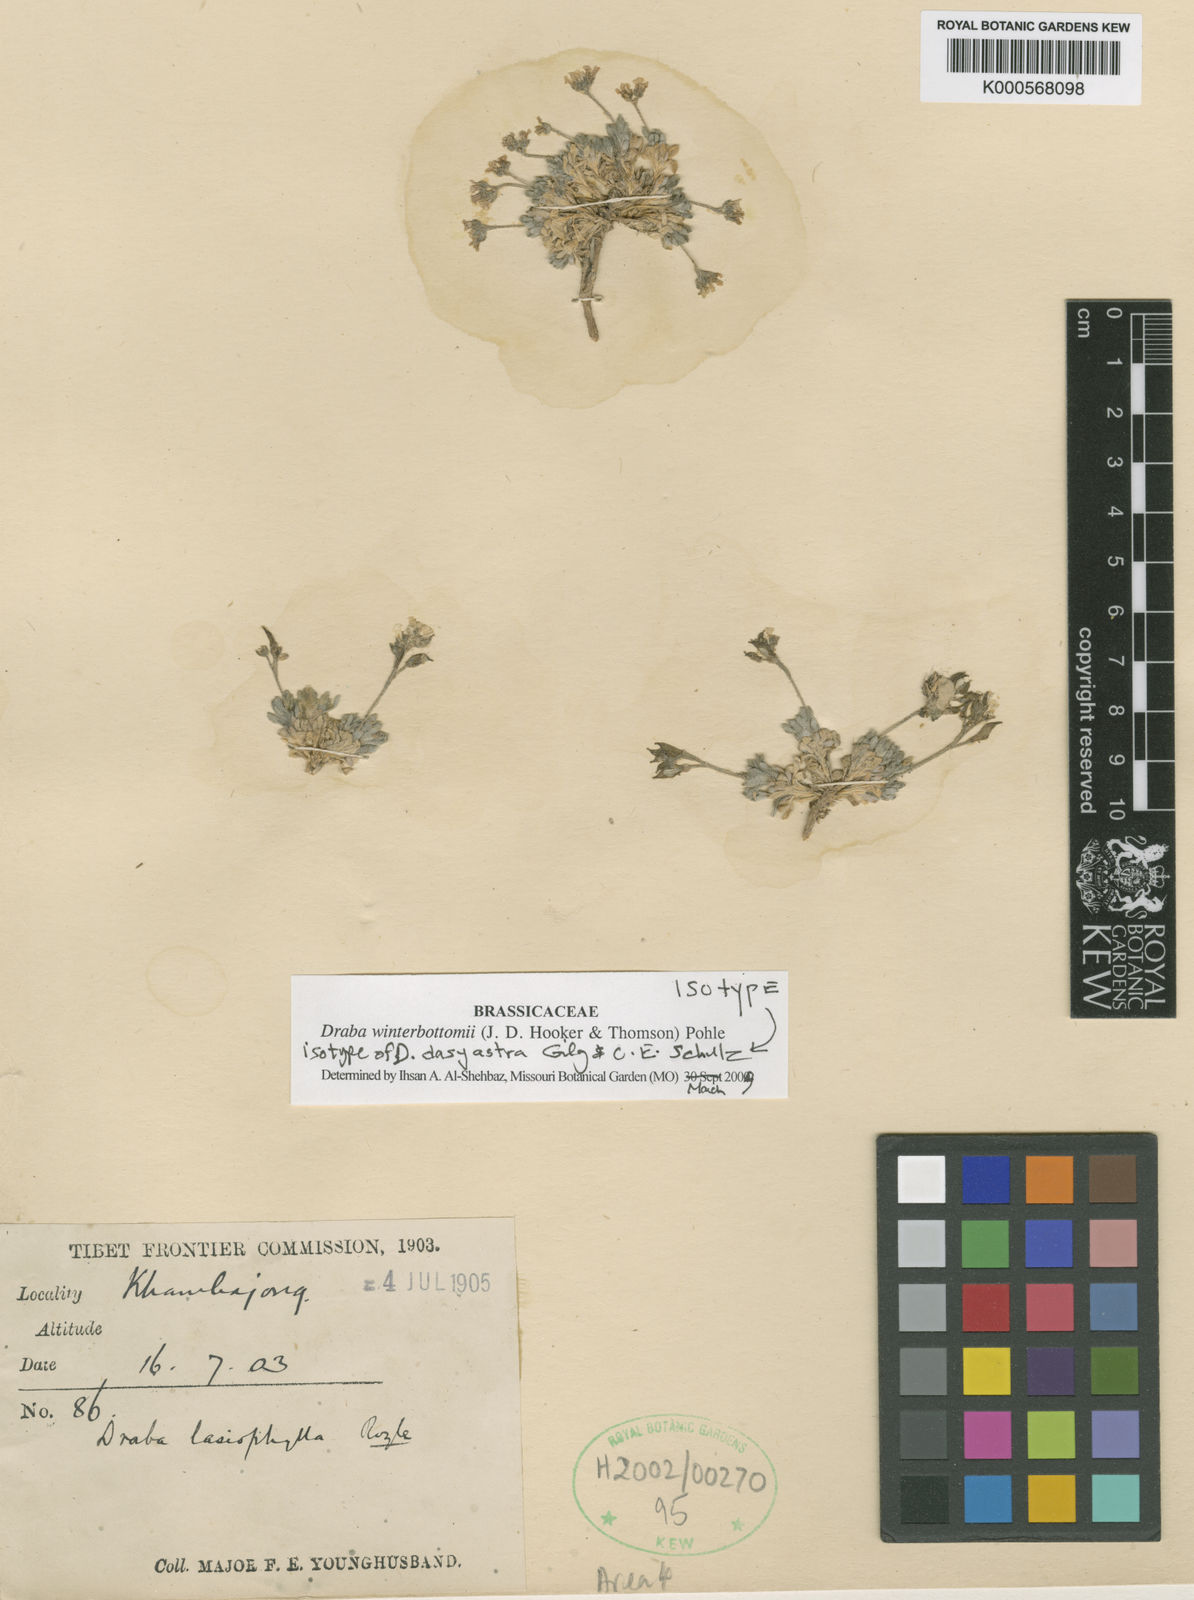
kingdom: Plantae
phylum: Tracheophyta
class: Magnoliopsida
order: Brassicales
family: Brassicaceae
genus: Draba
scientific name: Draba winterbottomii
